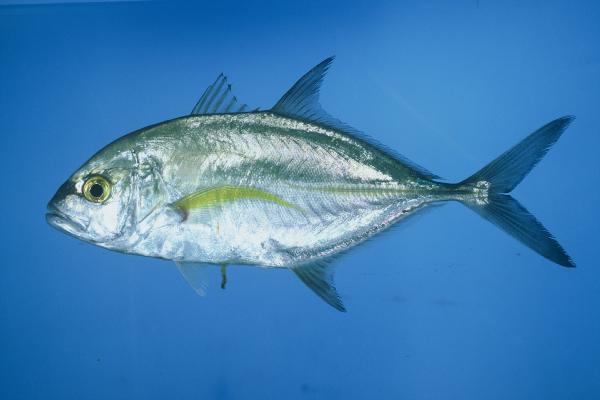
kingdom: Animalia
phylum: Chordata
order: Perciformes
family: Carangidae
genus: Caranx
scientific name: Caranx melampygus
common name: Bluefin trevally
